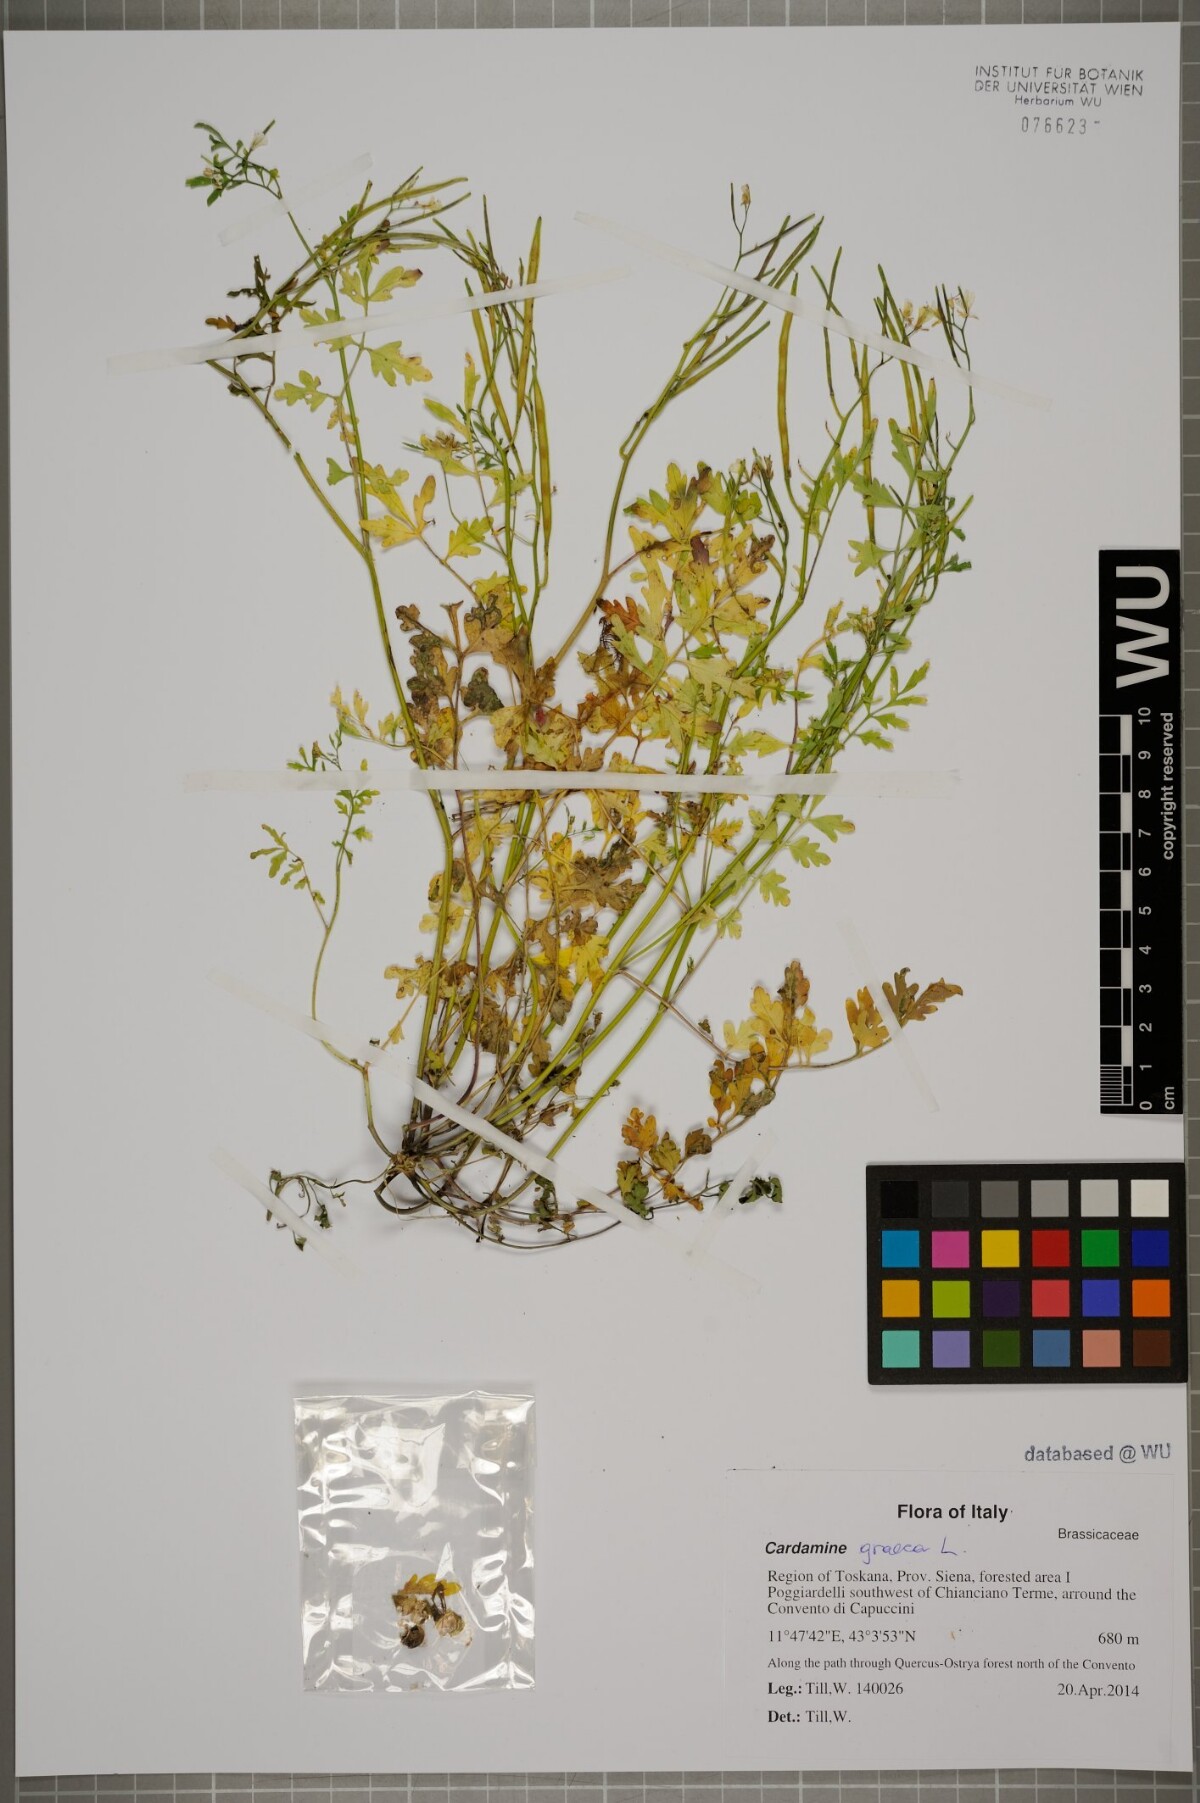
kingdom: Plantae
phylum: Tracheophyta
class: Magnoliopsida
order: Brassicales
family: Brassicaceae
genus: Cardamine
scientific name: Cardamine graeca
